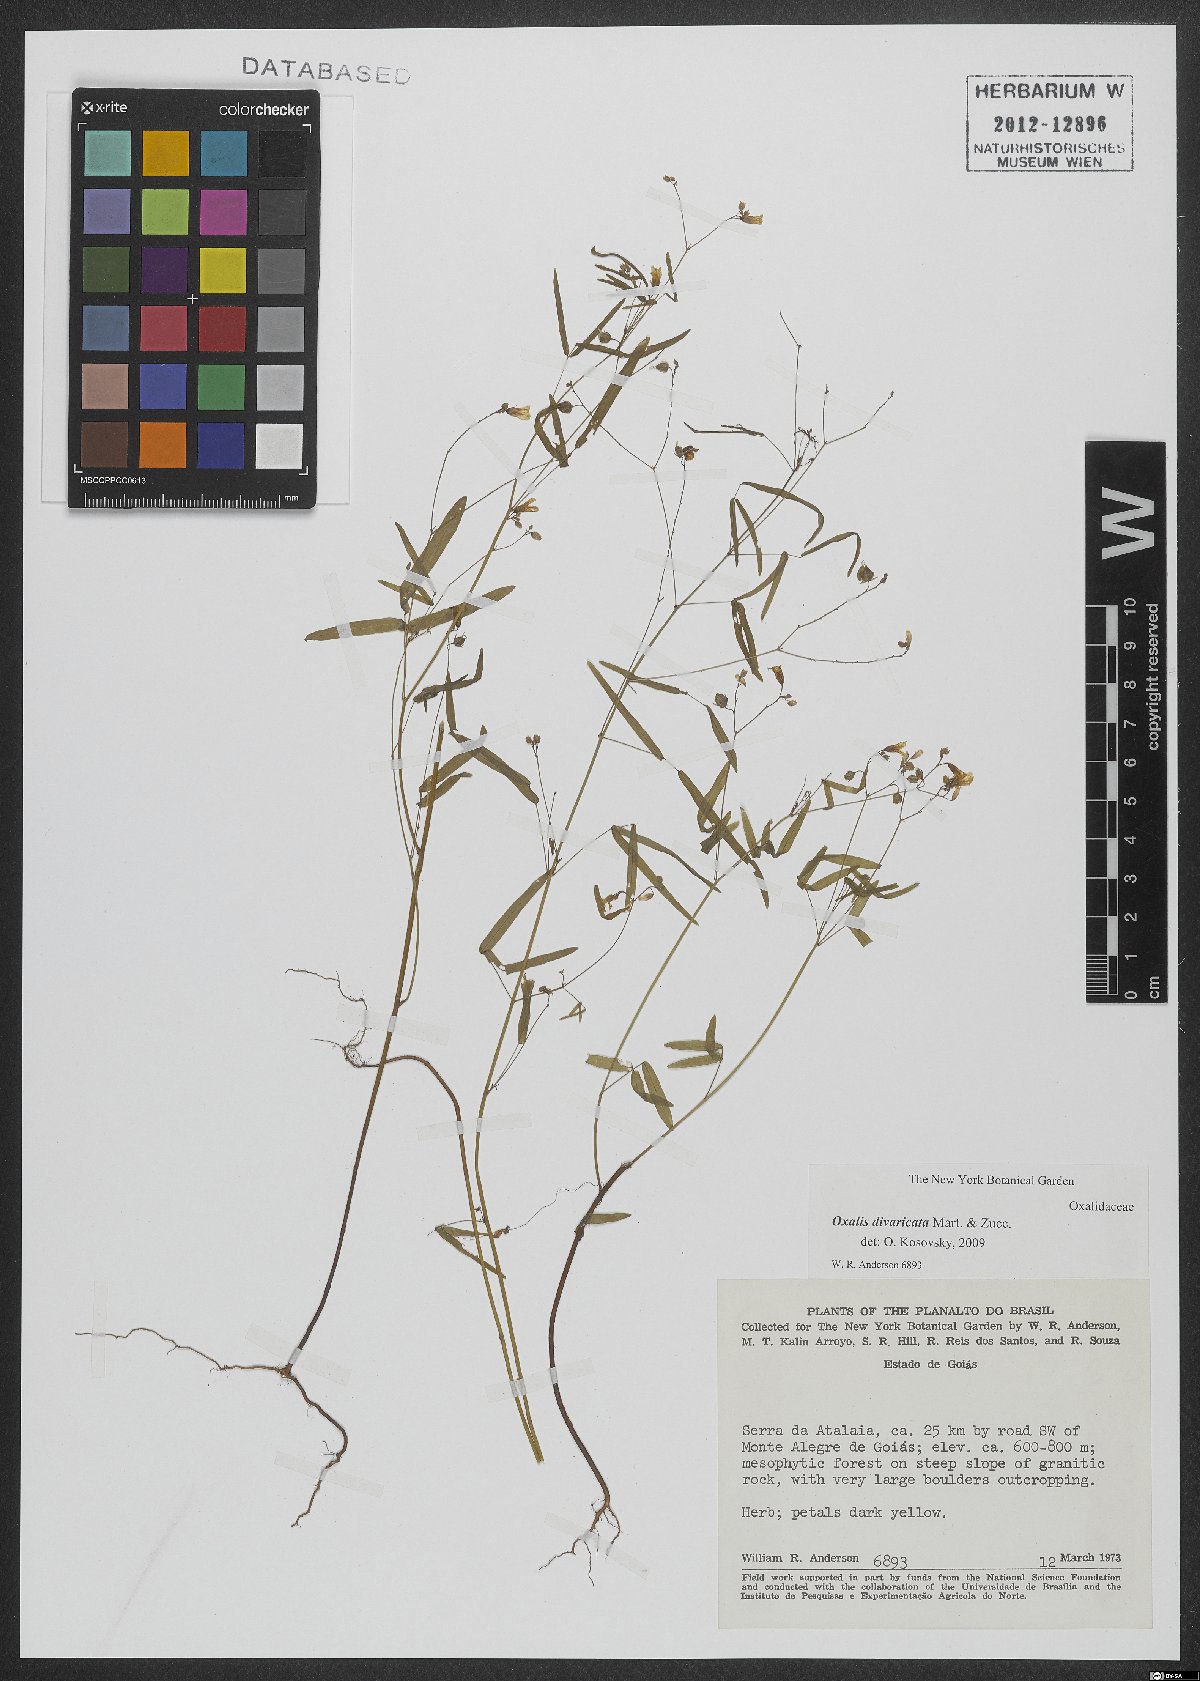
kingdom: Plantae
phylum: Tracheophyta
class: Magnoliopsida
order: Oxalidales
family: Oxalidaceae
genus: Oxalis
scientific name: Oxalis divaricata
